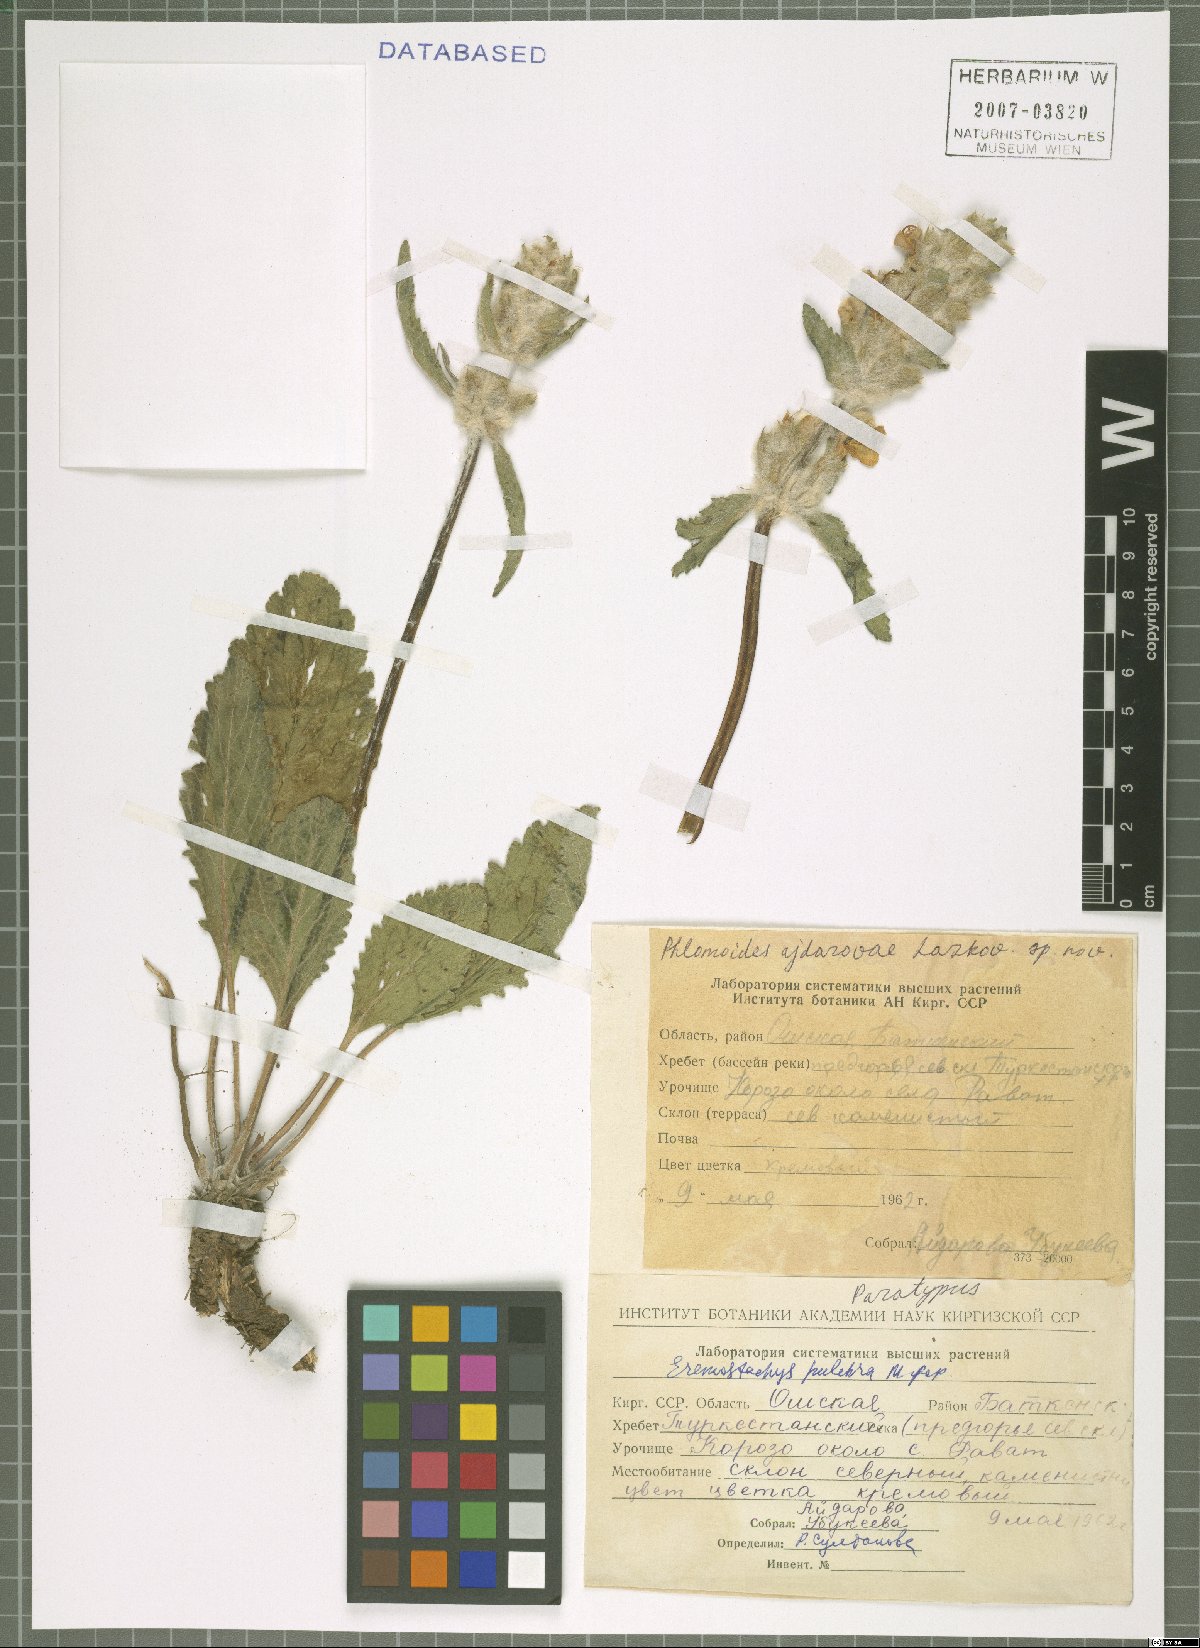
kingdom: Plantae
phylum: Tracheophyta
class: Magnoliopsida
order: Lamiales
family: Lamiaceae
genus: Phlomoides
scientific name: Phlomoides pulchra
